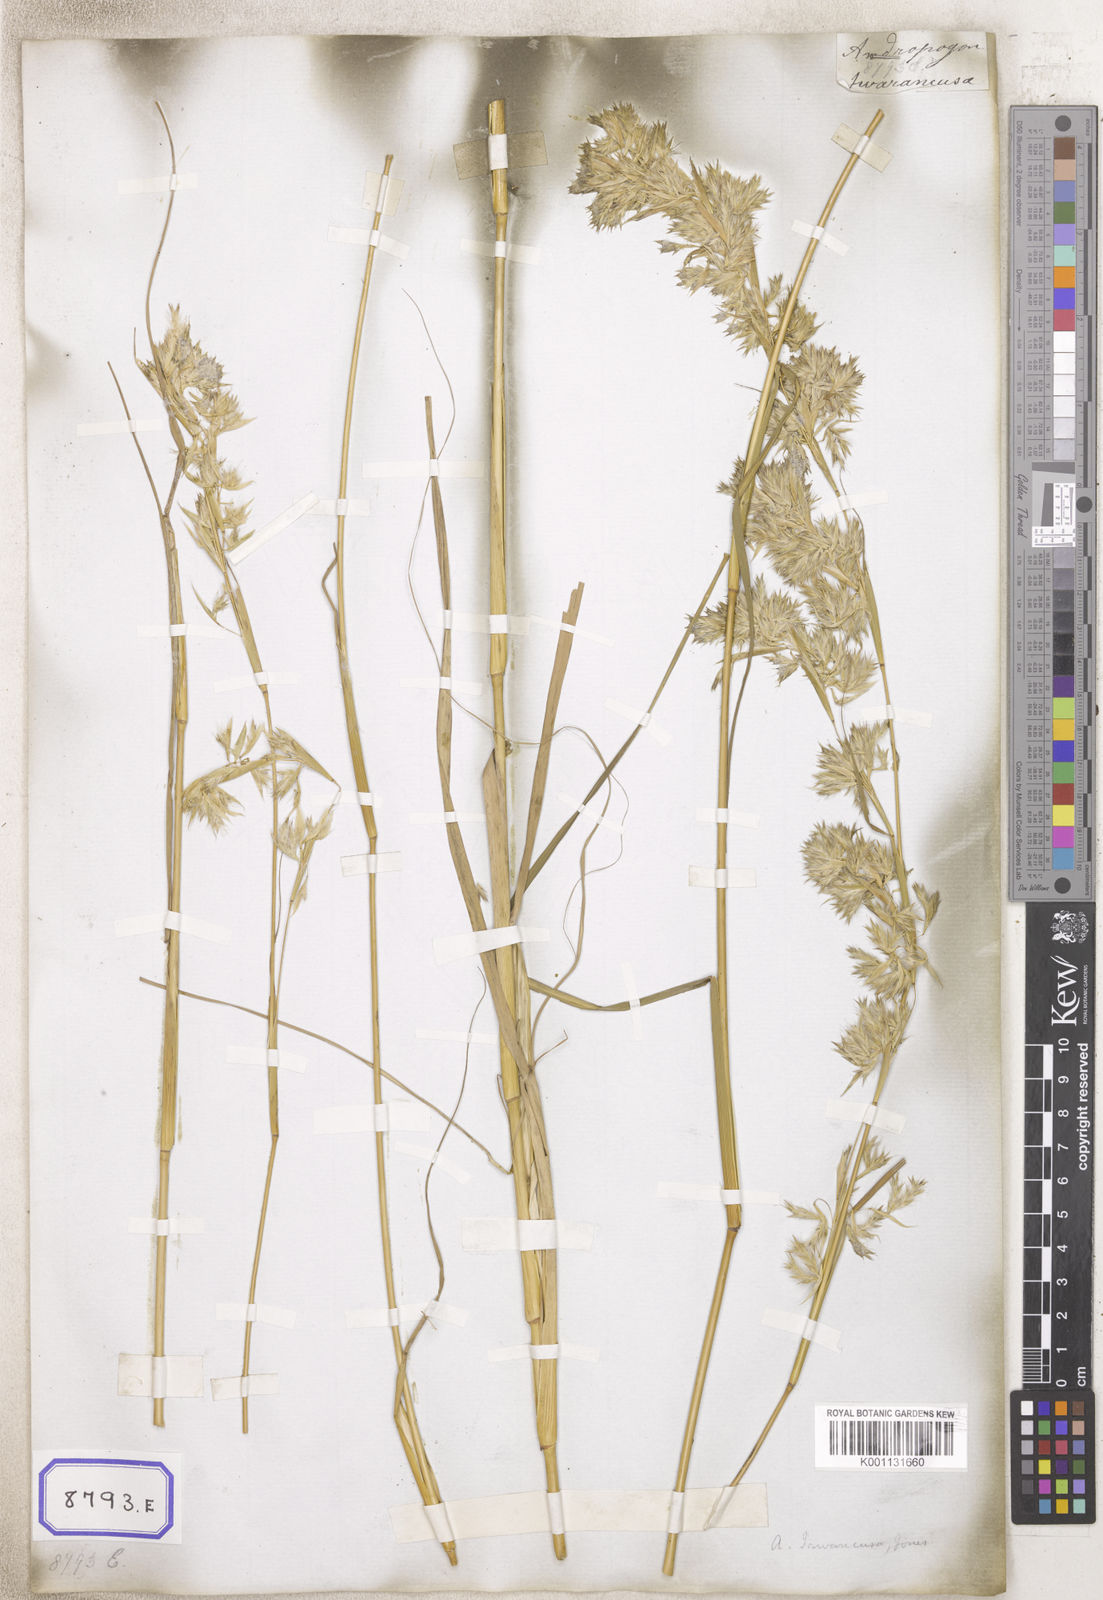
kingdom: Plantae
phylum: Tracheophyta
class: Liliopsida
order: Poales
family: Poaceae
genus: Cymbopogon
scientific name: Cymbopogon iwarancusa
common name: Iwarancusa grass
